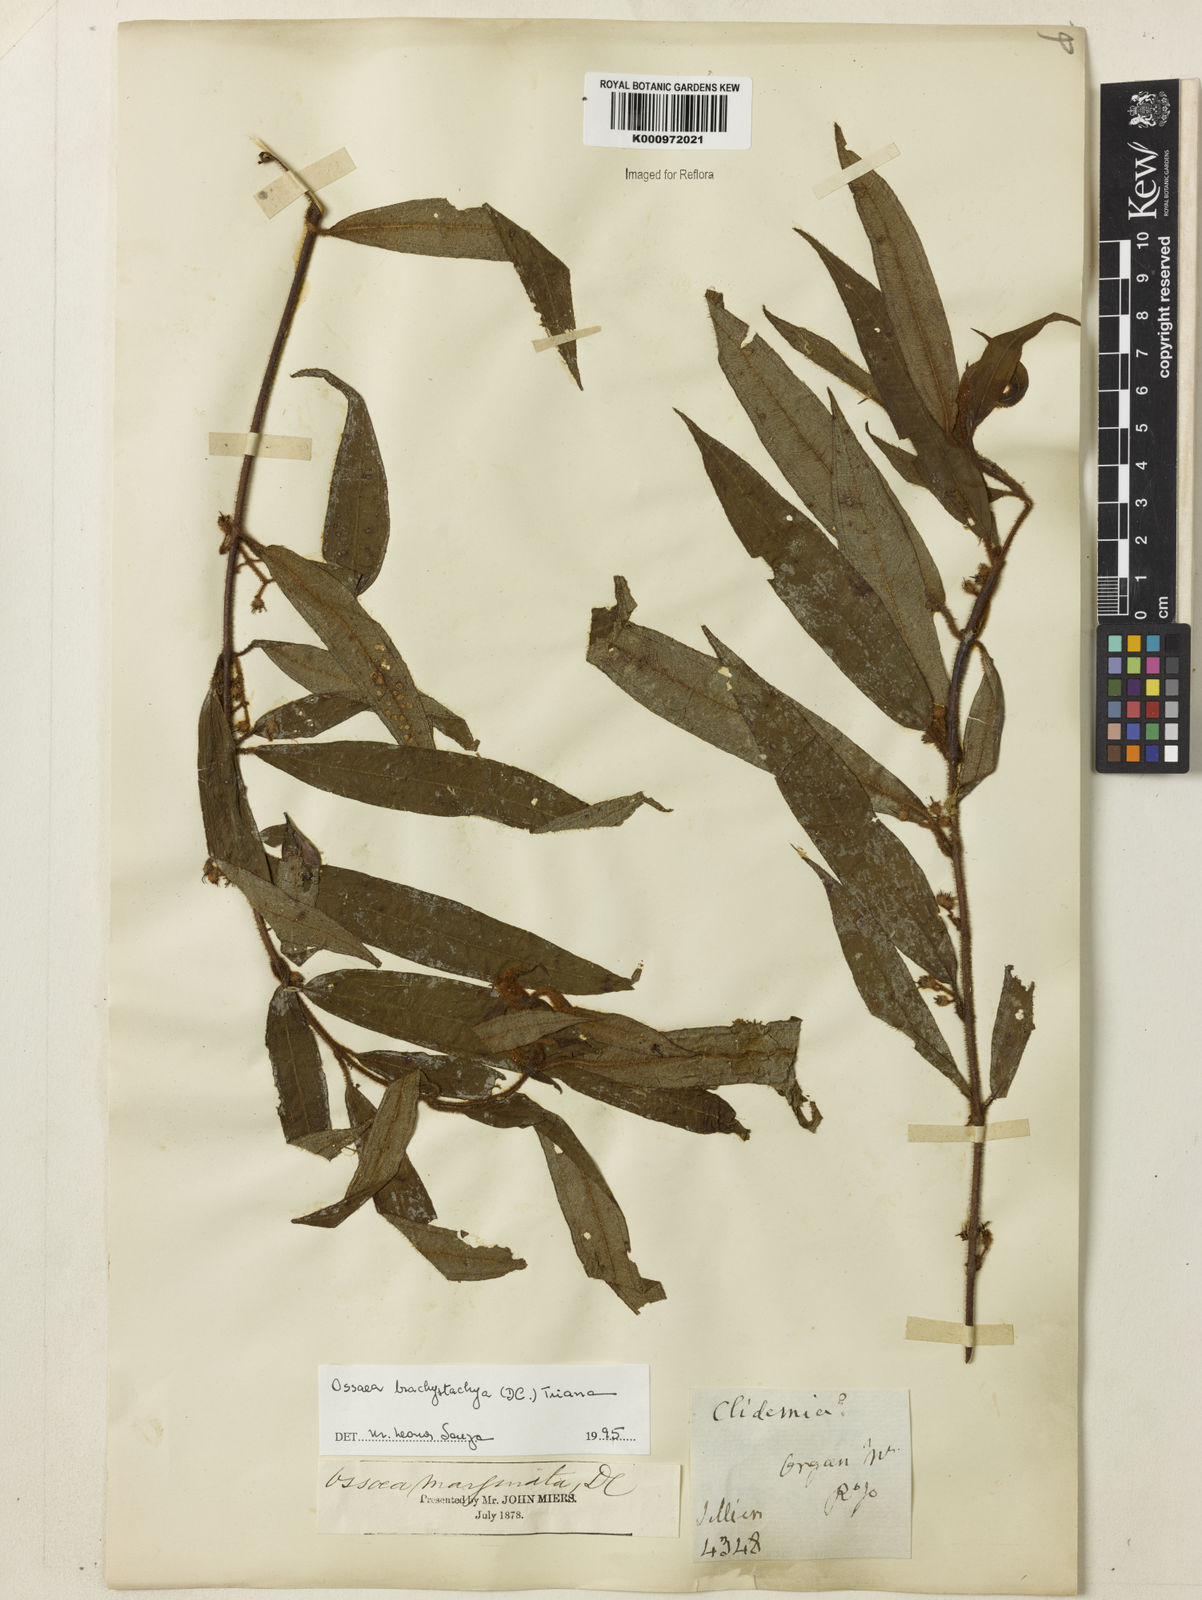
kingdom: Plantae
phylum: Tracheophyta
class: Magnoliopsida
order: Myrtales
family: Melastomataceae
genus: Miconia
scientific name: Miconia amygdaloides
